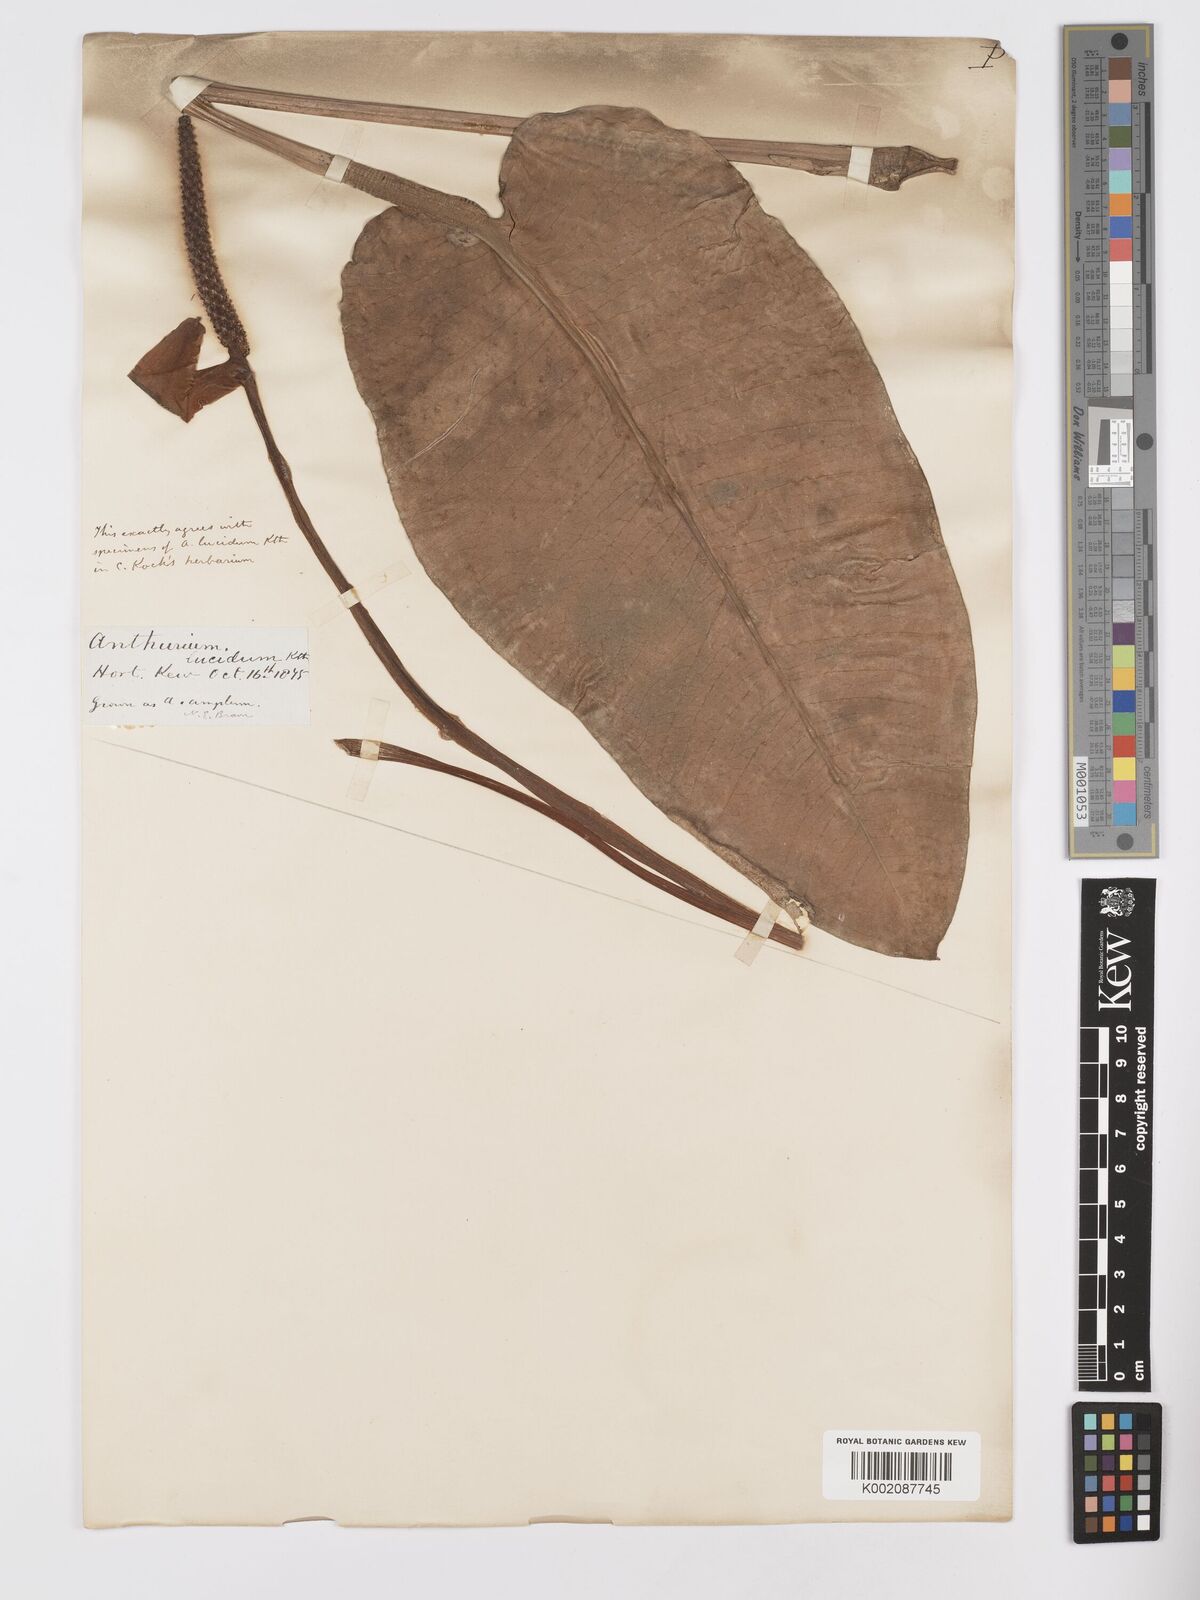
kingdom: Plantae
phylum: Tracheophyta
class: Liliopsida
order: Alismatales
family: Araceae
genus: Anthurium
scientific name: Anthurium lucidum
